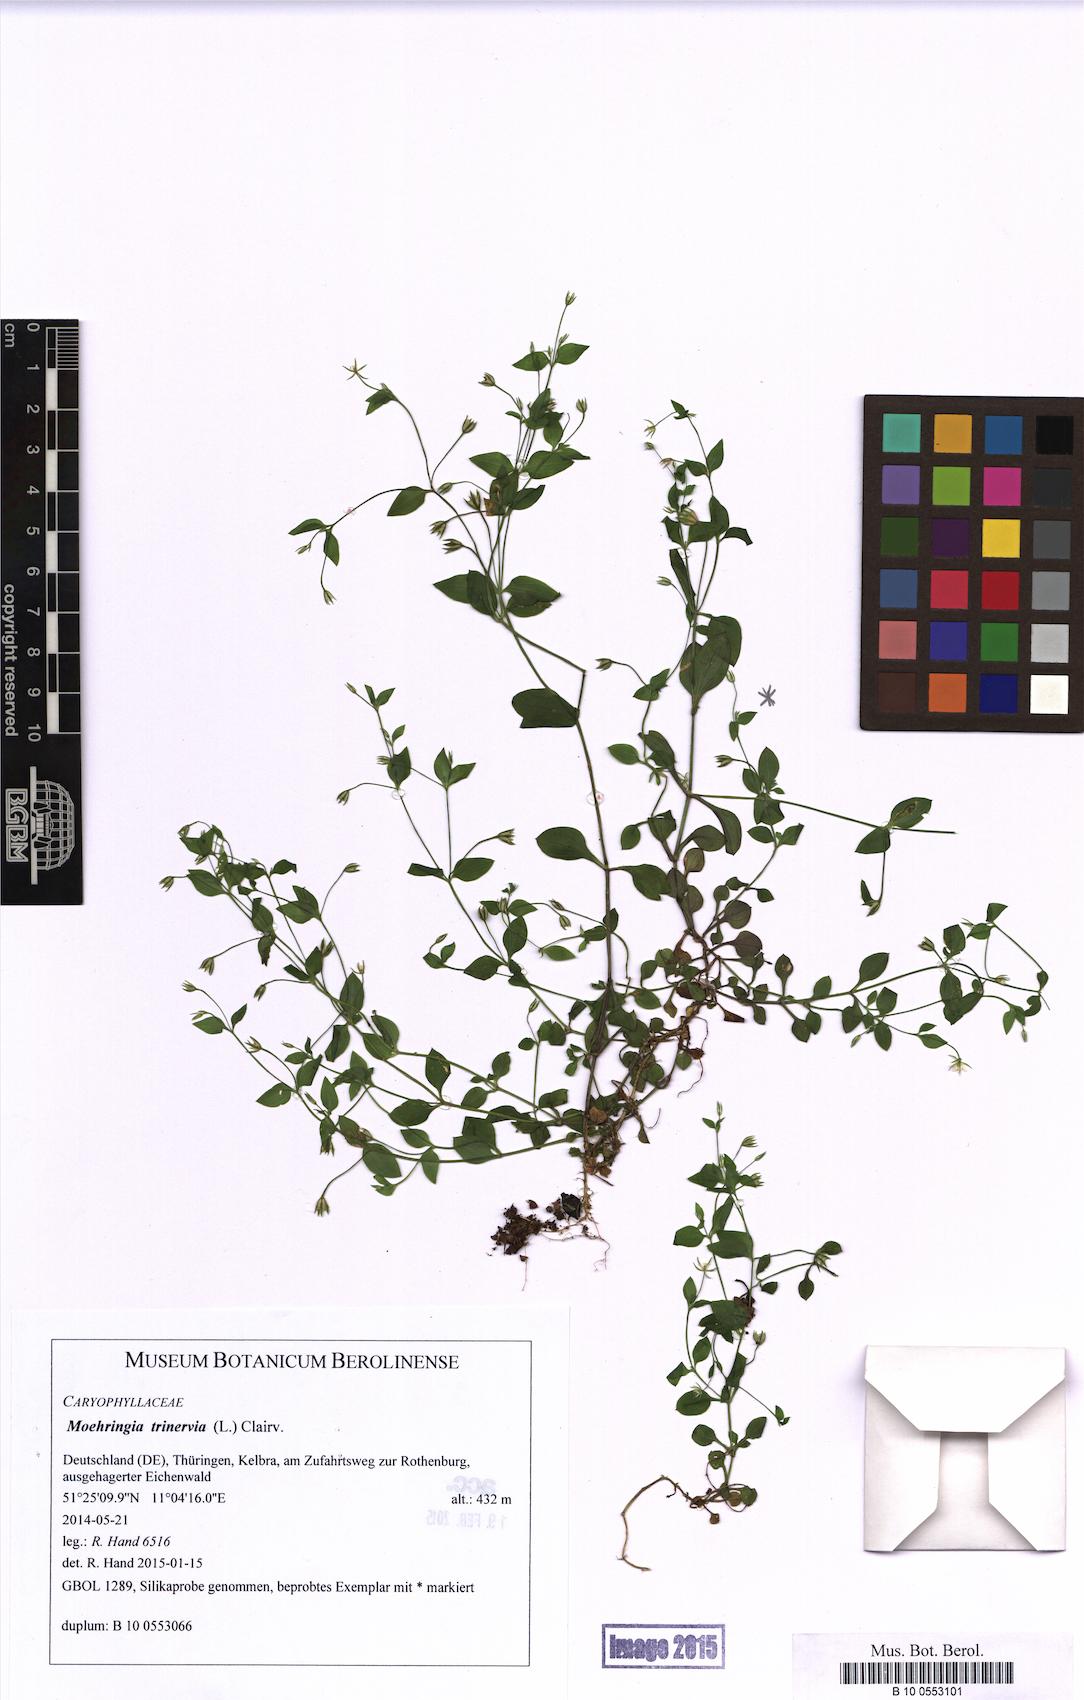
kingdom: Plantae
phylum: Tracheophyta
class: Magnoliopsida
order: Caryophyllales
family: Caryophyllaceae
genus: Moehringia
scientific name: Moehringia trinervia
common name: Three-nerved sandwort
